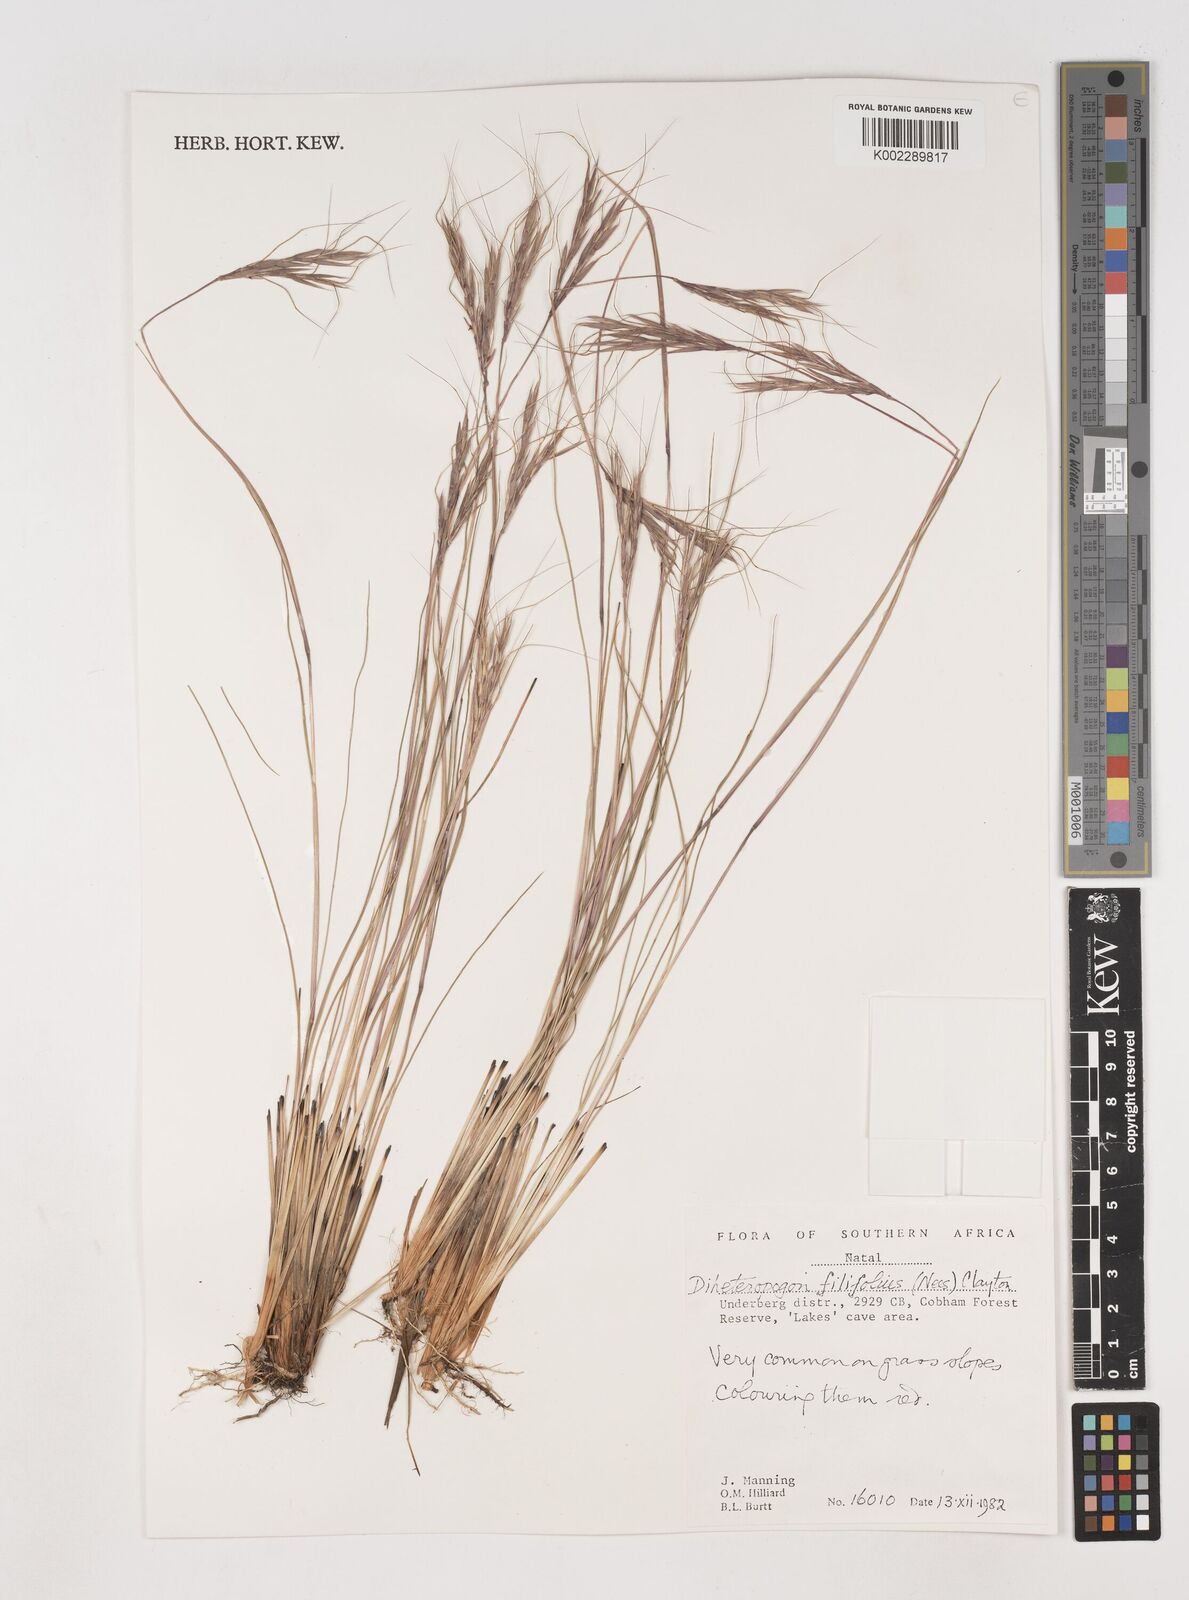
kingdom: Plantae
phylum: Tracheophyta
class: Liliopsida
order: Poales
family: Poaceae
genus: Diheteropogon
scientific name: Diheteropogon filifolius
